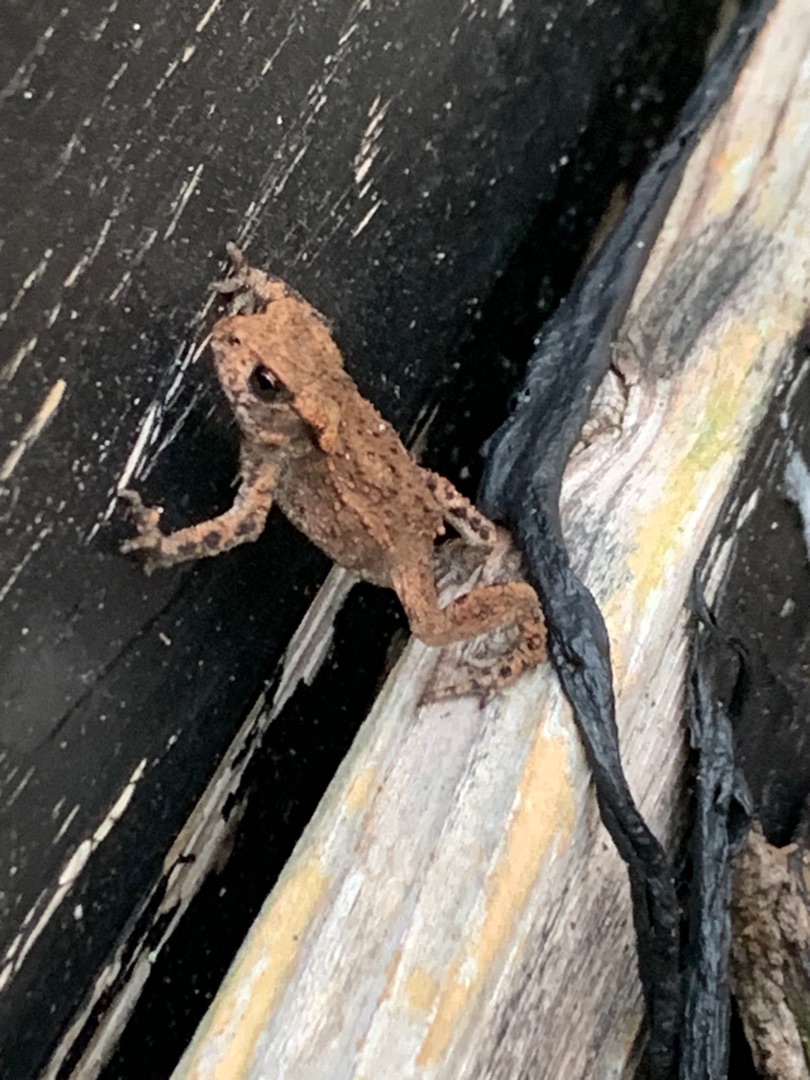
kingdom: Animalia
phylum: Chordata
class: Amphibia
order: Anura
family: Bufonidae
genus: Bufo
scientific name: Bufo bufo
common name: Skrubtudse
